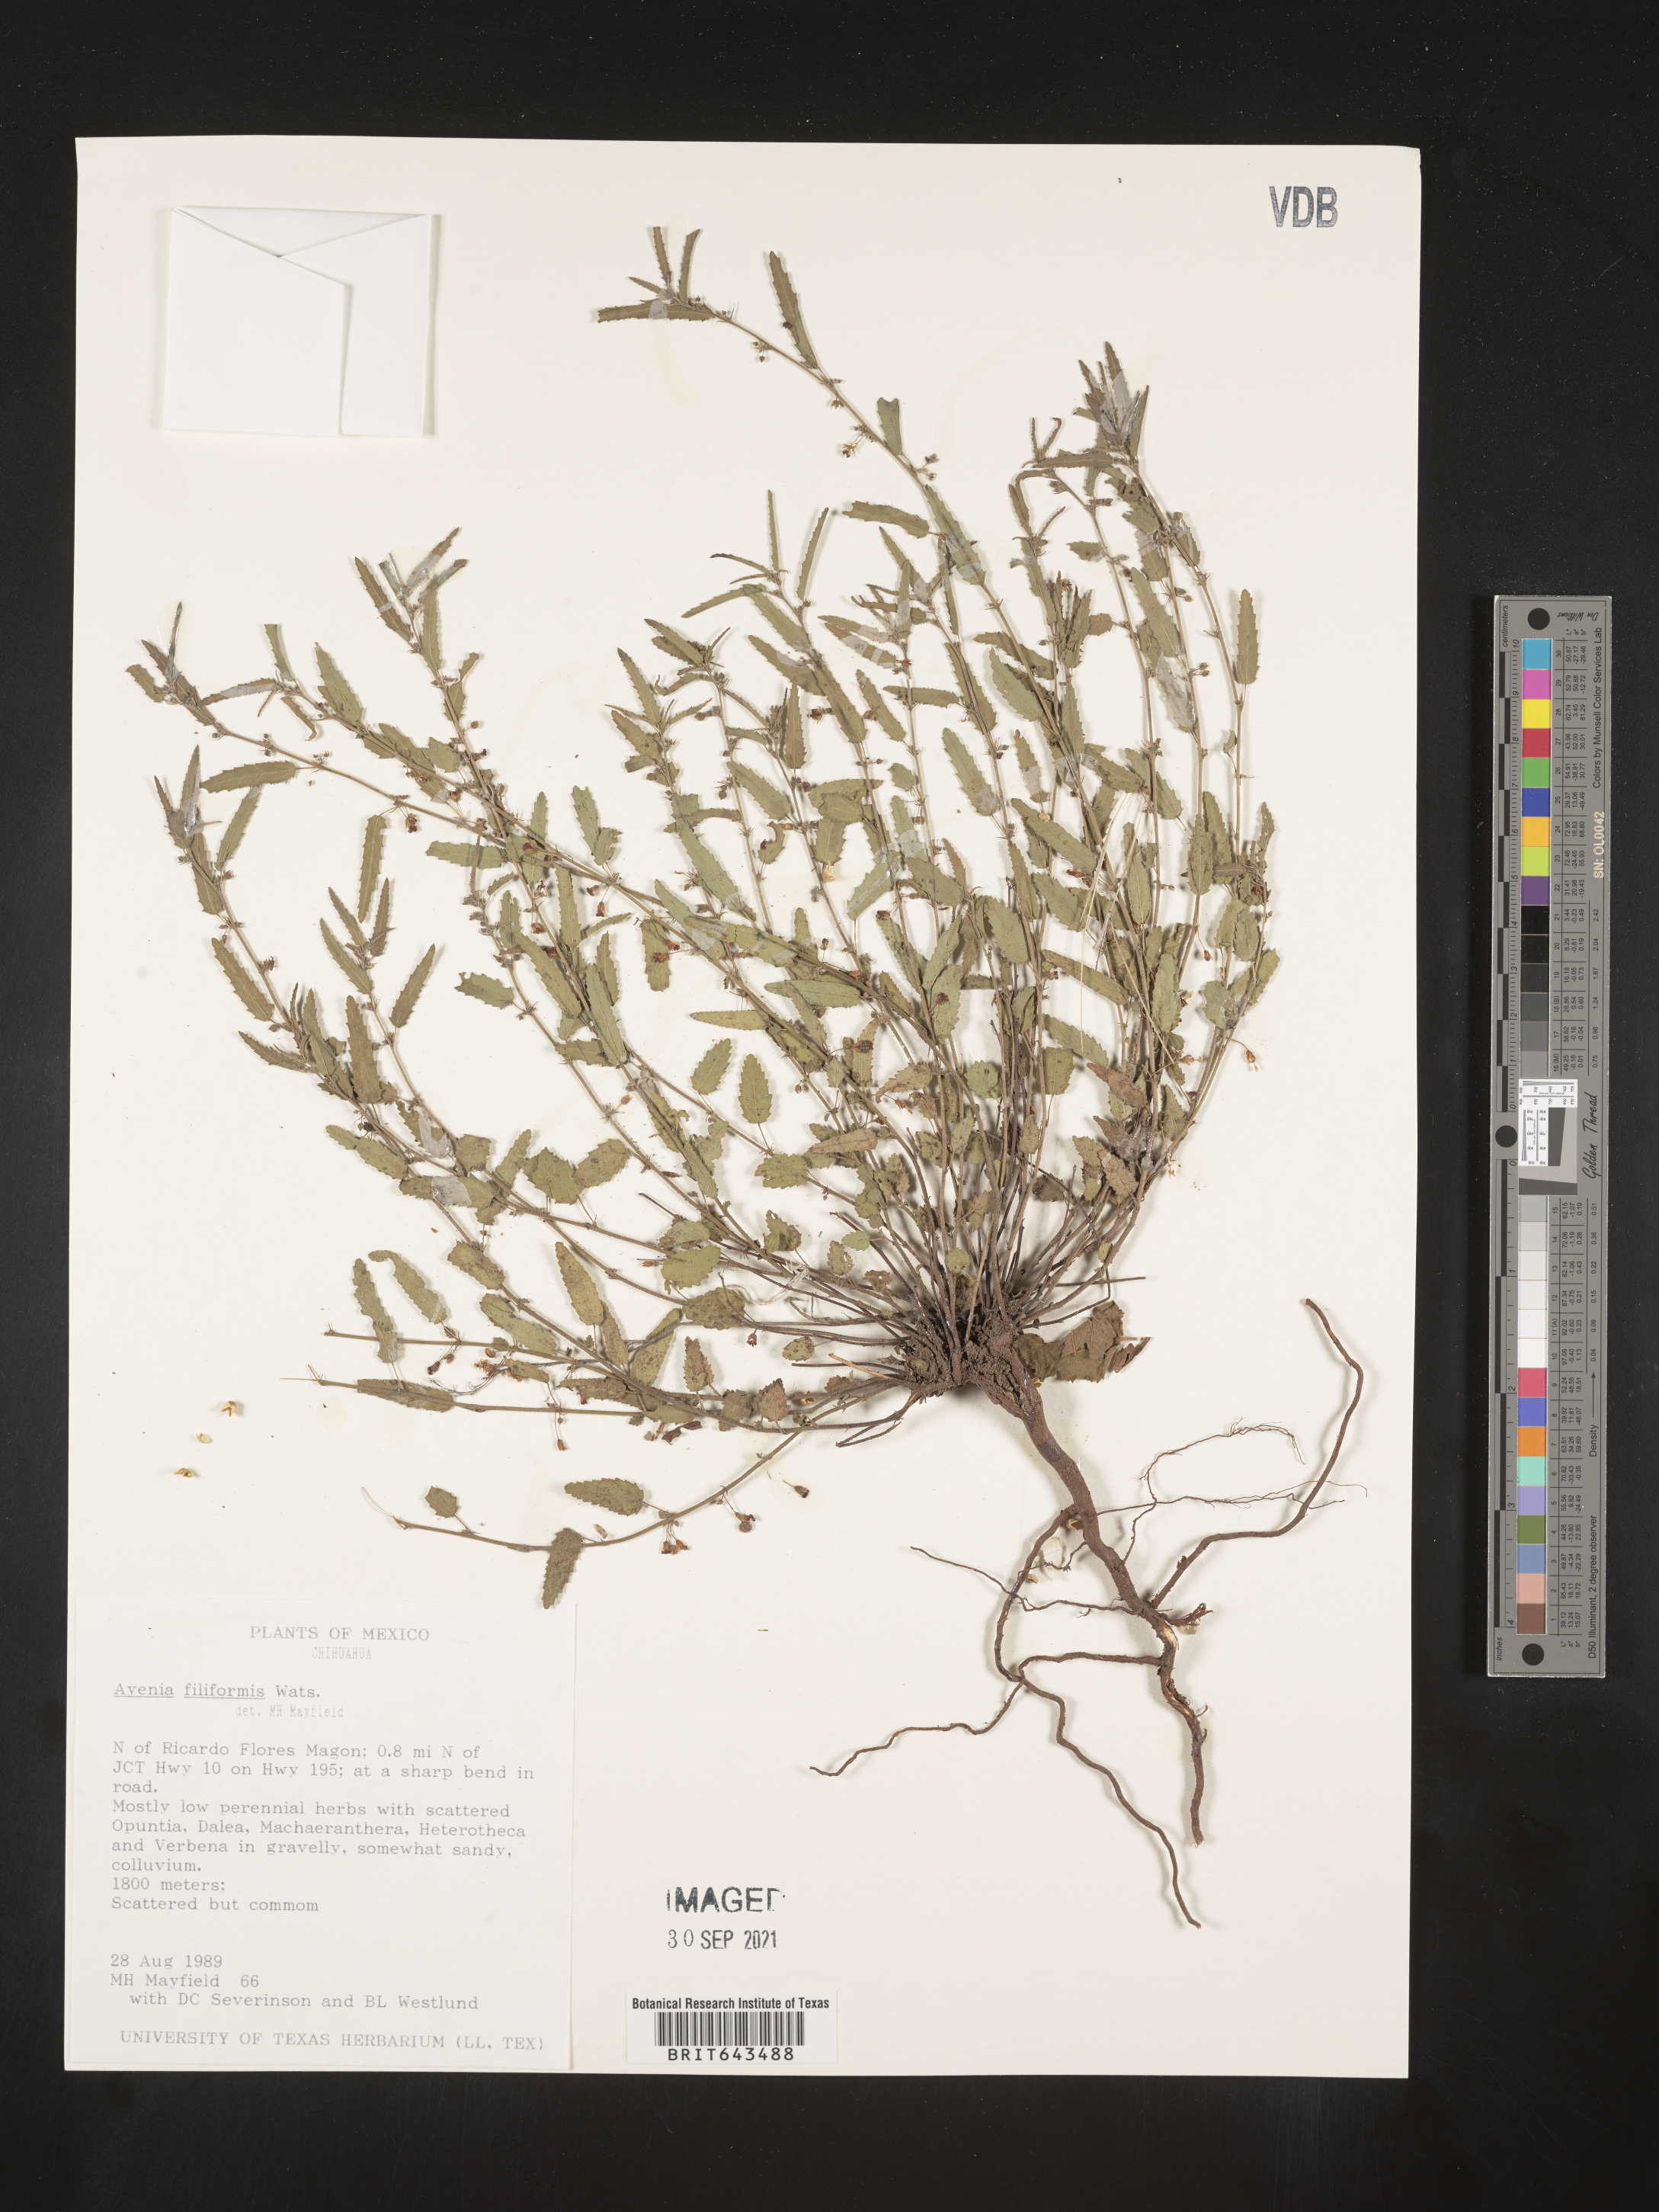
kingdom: Plantae
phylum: Tracheophyta
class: Magnoliopsida
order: Malvales
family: Malvaceae
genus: Ayenia
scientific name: Ayenia
